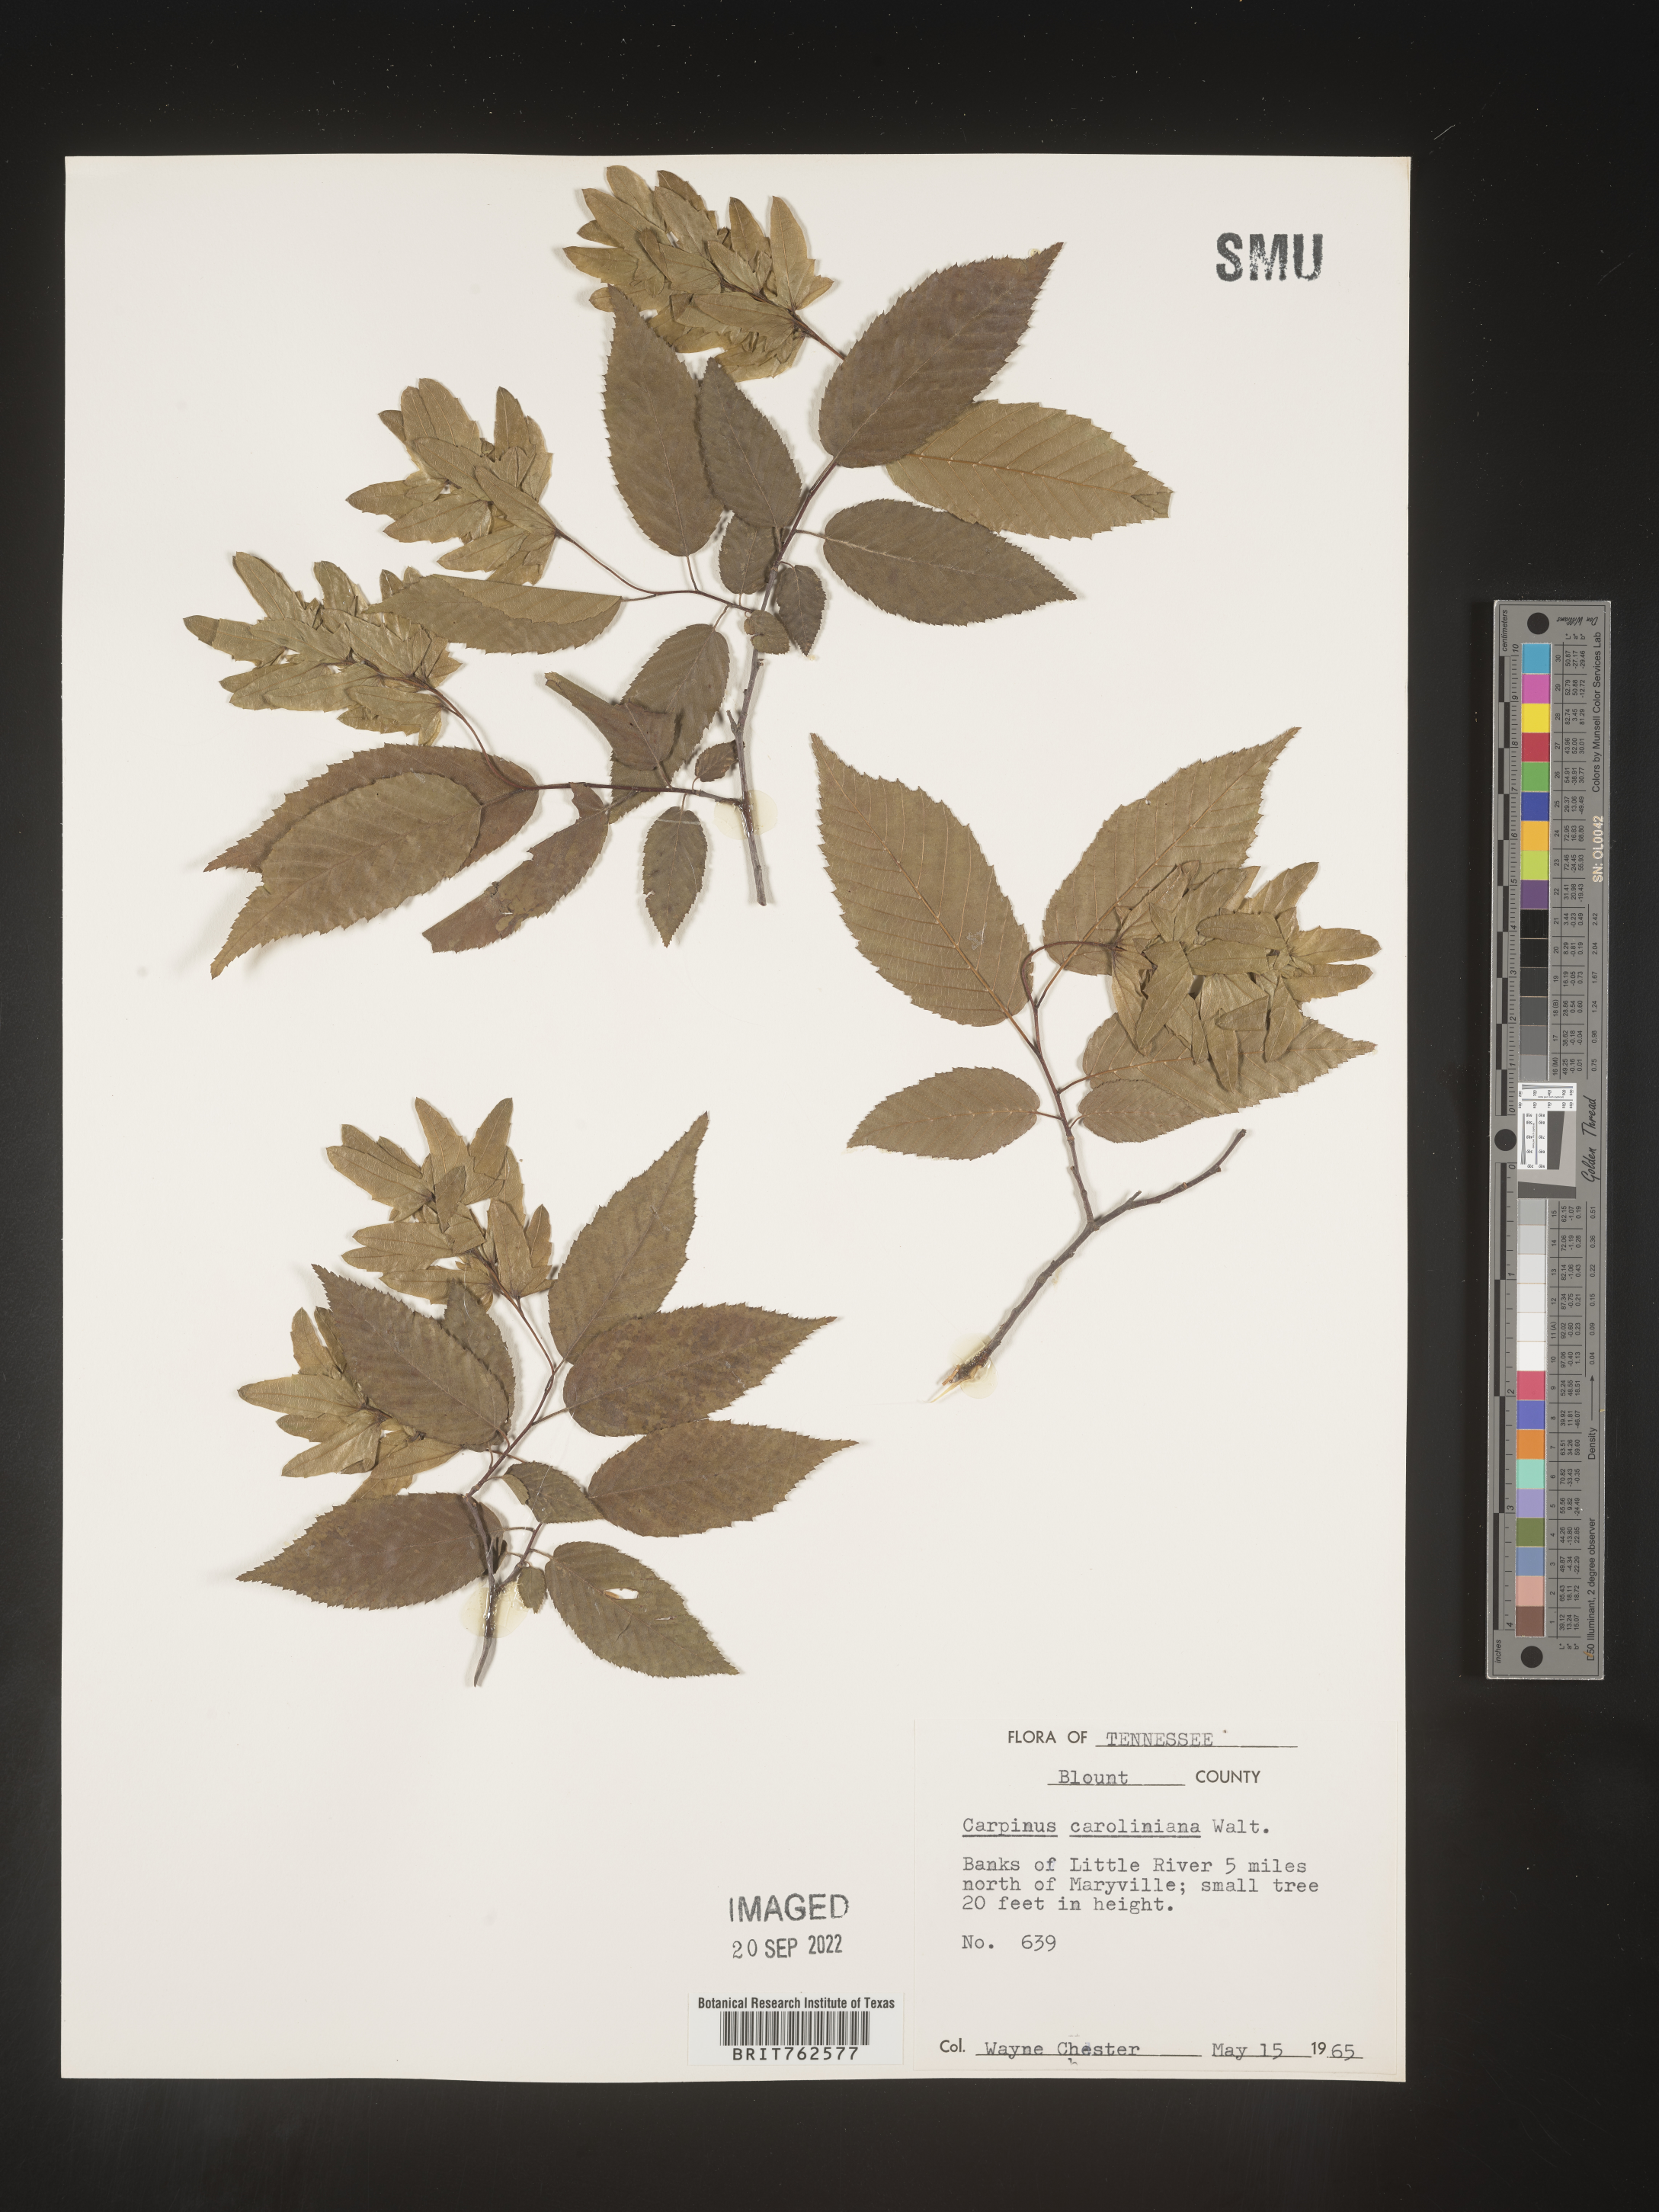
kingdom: Plantae
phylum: Tracheophyta
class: Magnoliopsida
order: Fagales
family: Betulaceae
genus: Carpinus
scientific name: Carpinus caroliniana
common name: American hornbeam
